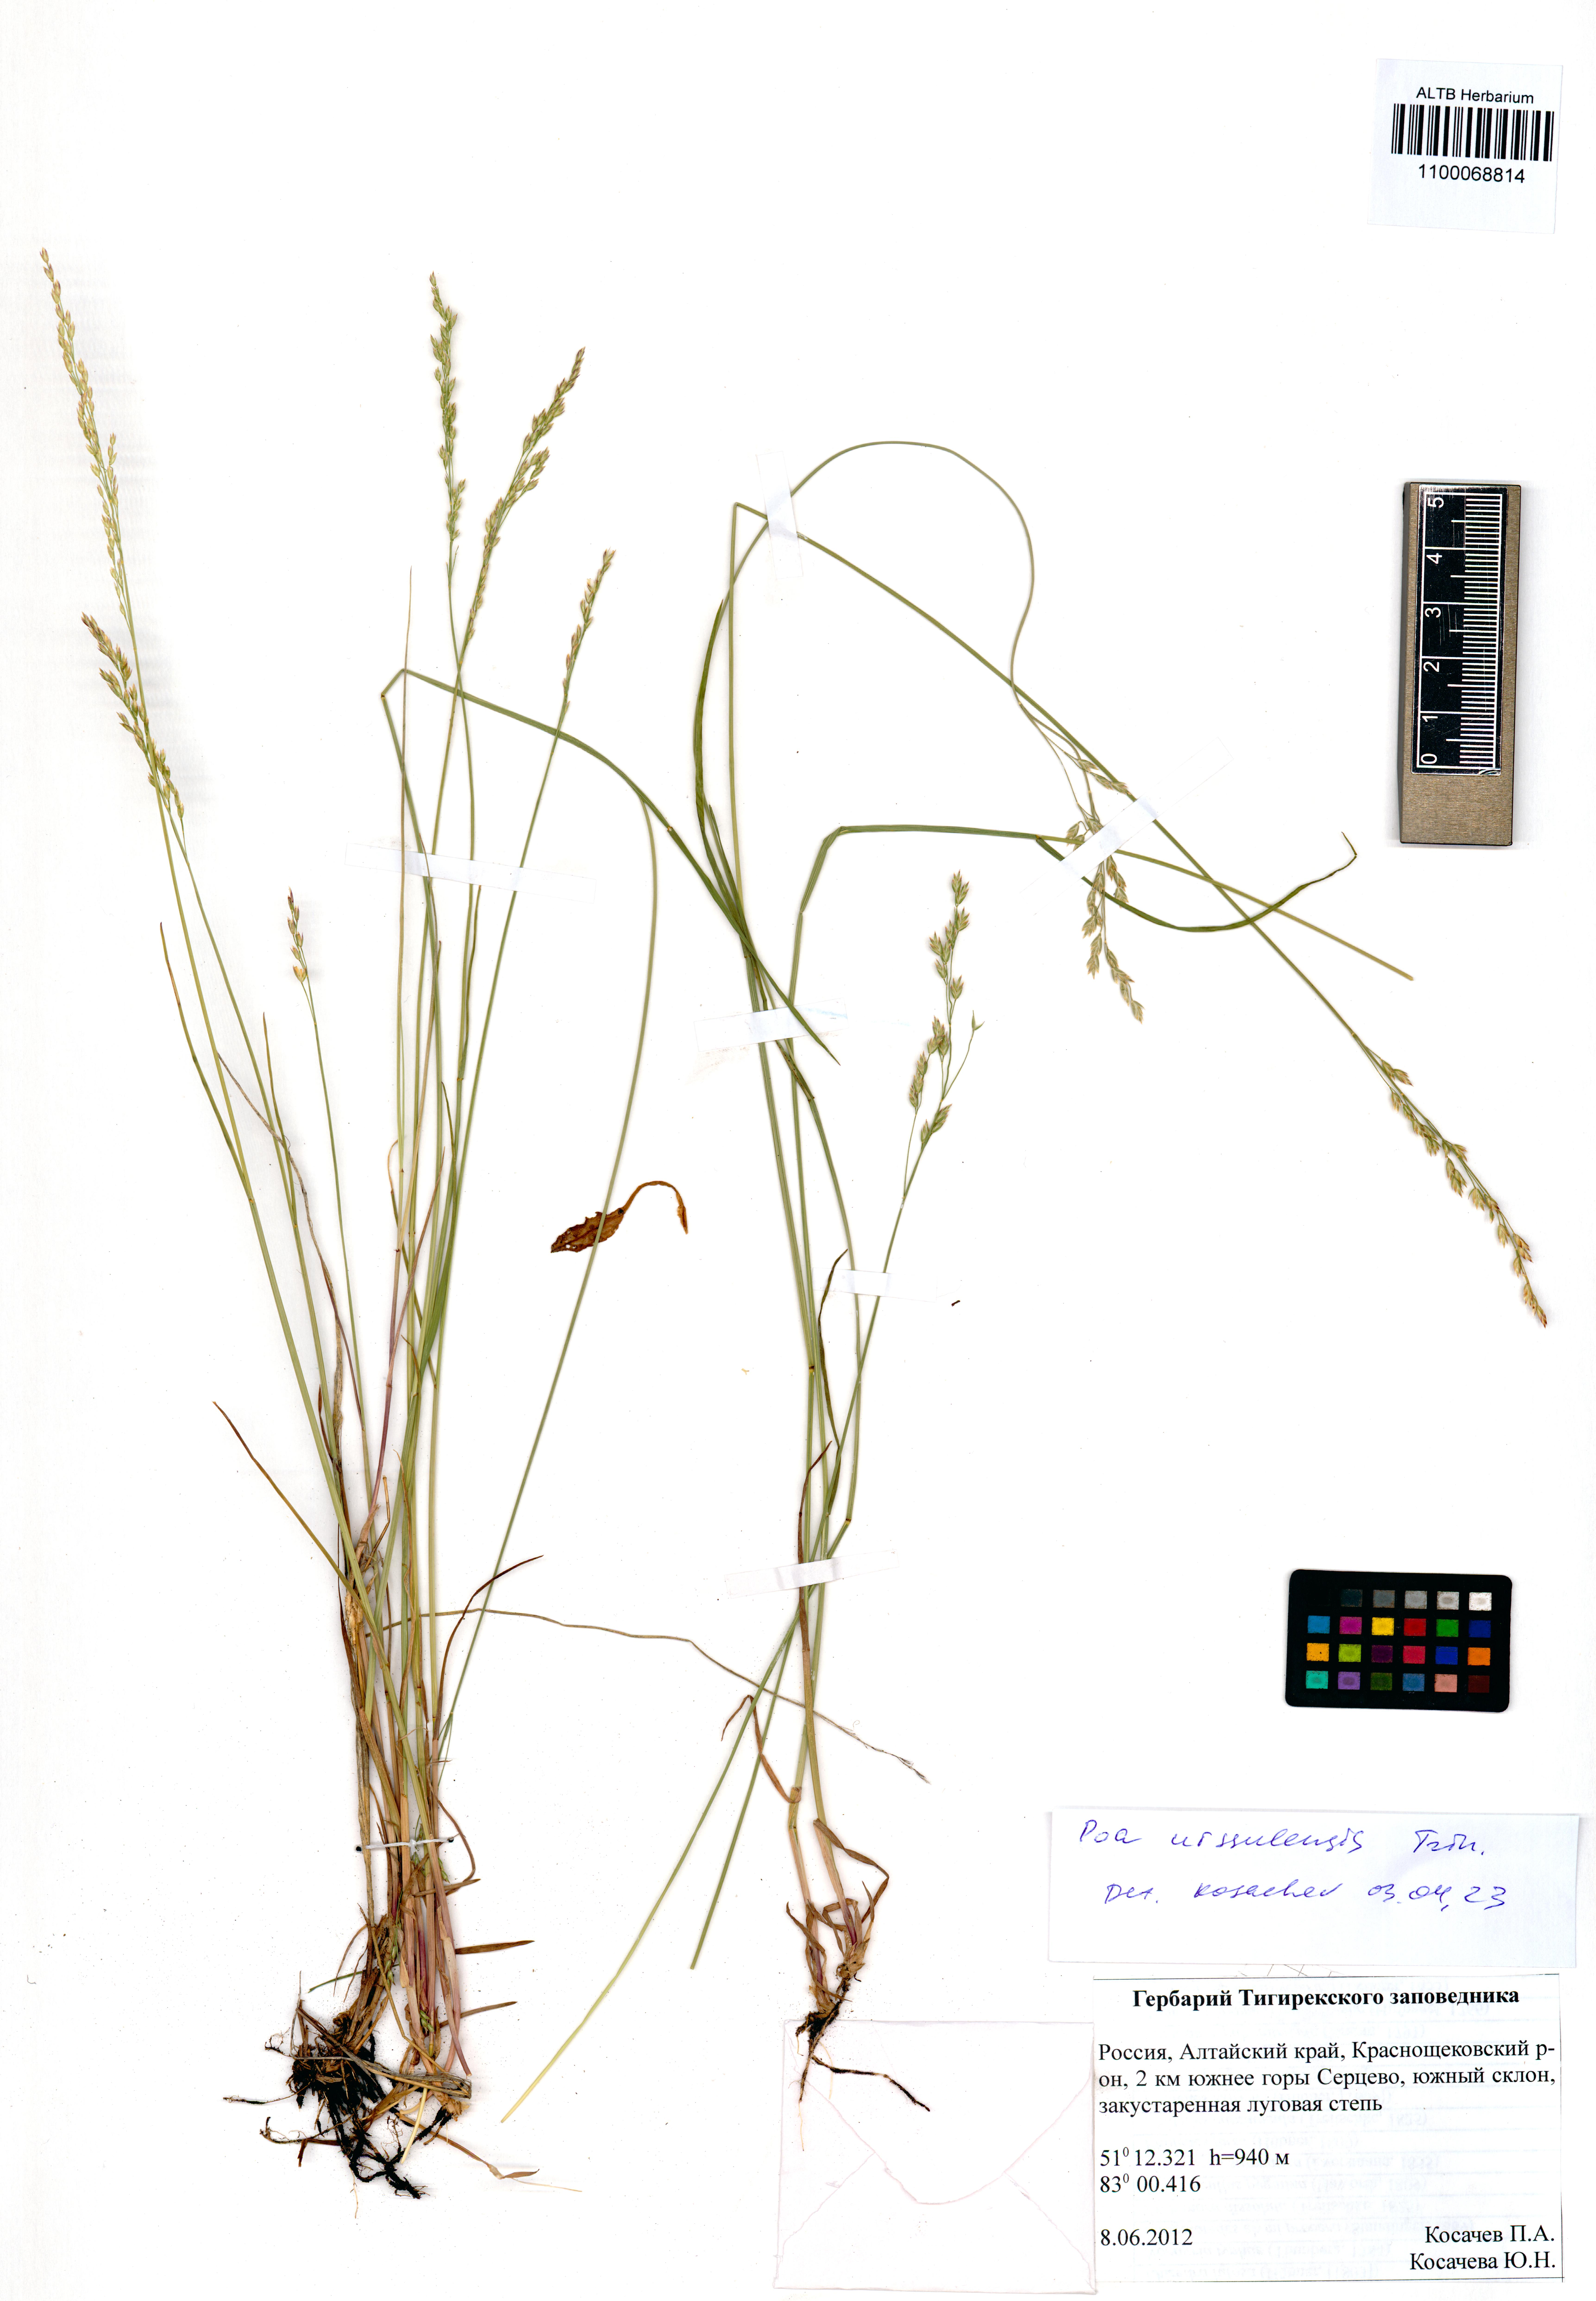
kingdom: Plantae
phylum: Tracheophyta
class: Liliopsida
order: Poales
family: Poaceae
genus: Poa
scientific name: Poa urssulensis
